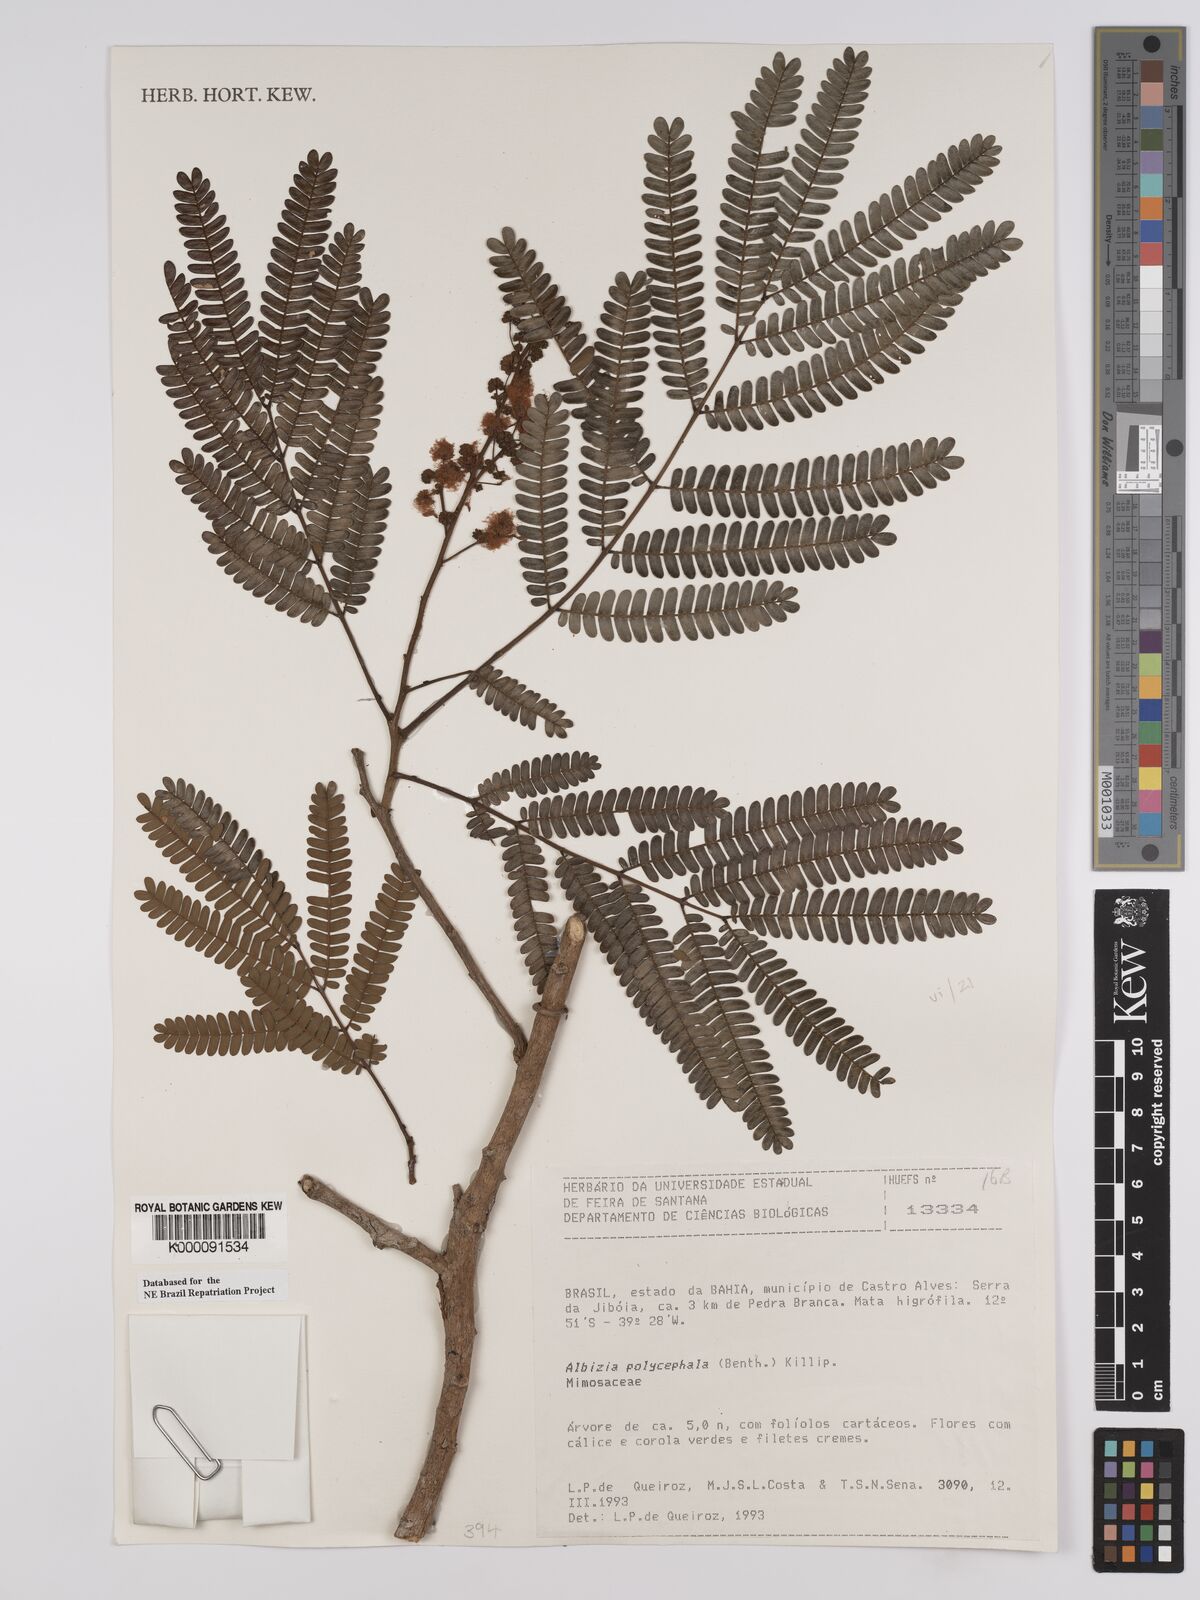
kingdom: Plantae
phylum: Tracheophyta
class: Magnoliopsida
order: Fabales
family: Fabaceae
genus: Albizia
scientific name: Albizia polycephala
